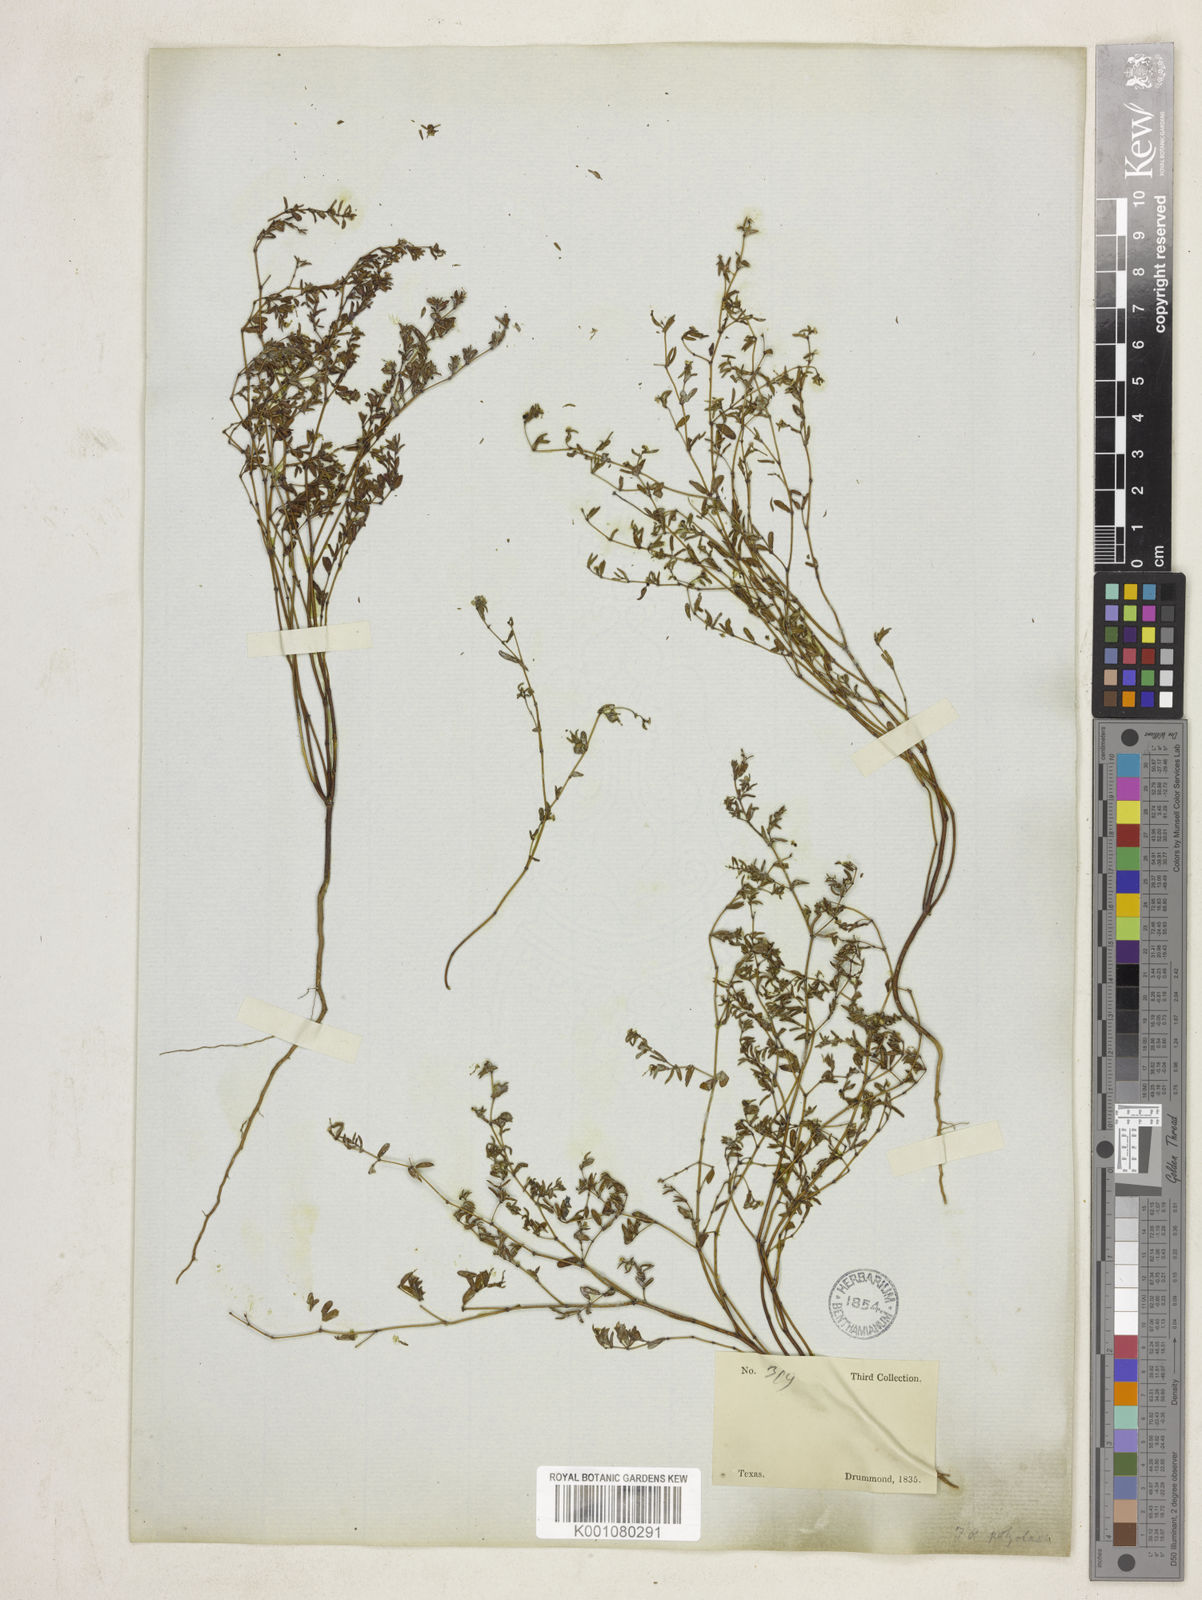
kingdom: Plantae
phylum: Tracheophyta
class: Magnoliopsida
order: Malpighiales
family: Euphorbiaceae
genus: Euphorbia
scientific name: Euphorbia geyeri
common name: Geyer's spurge
